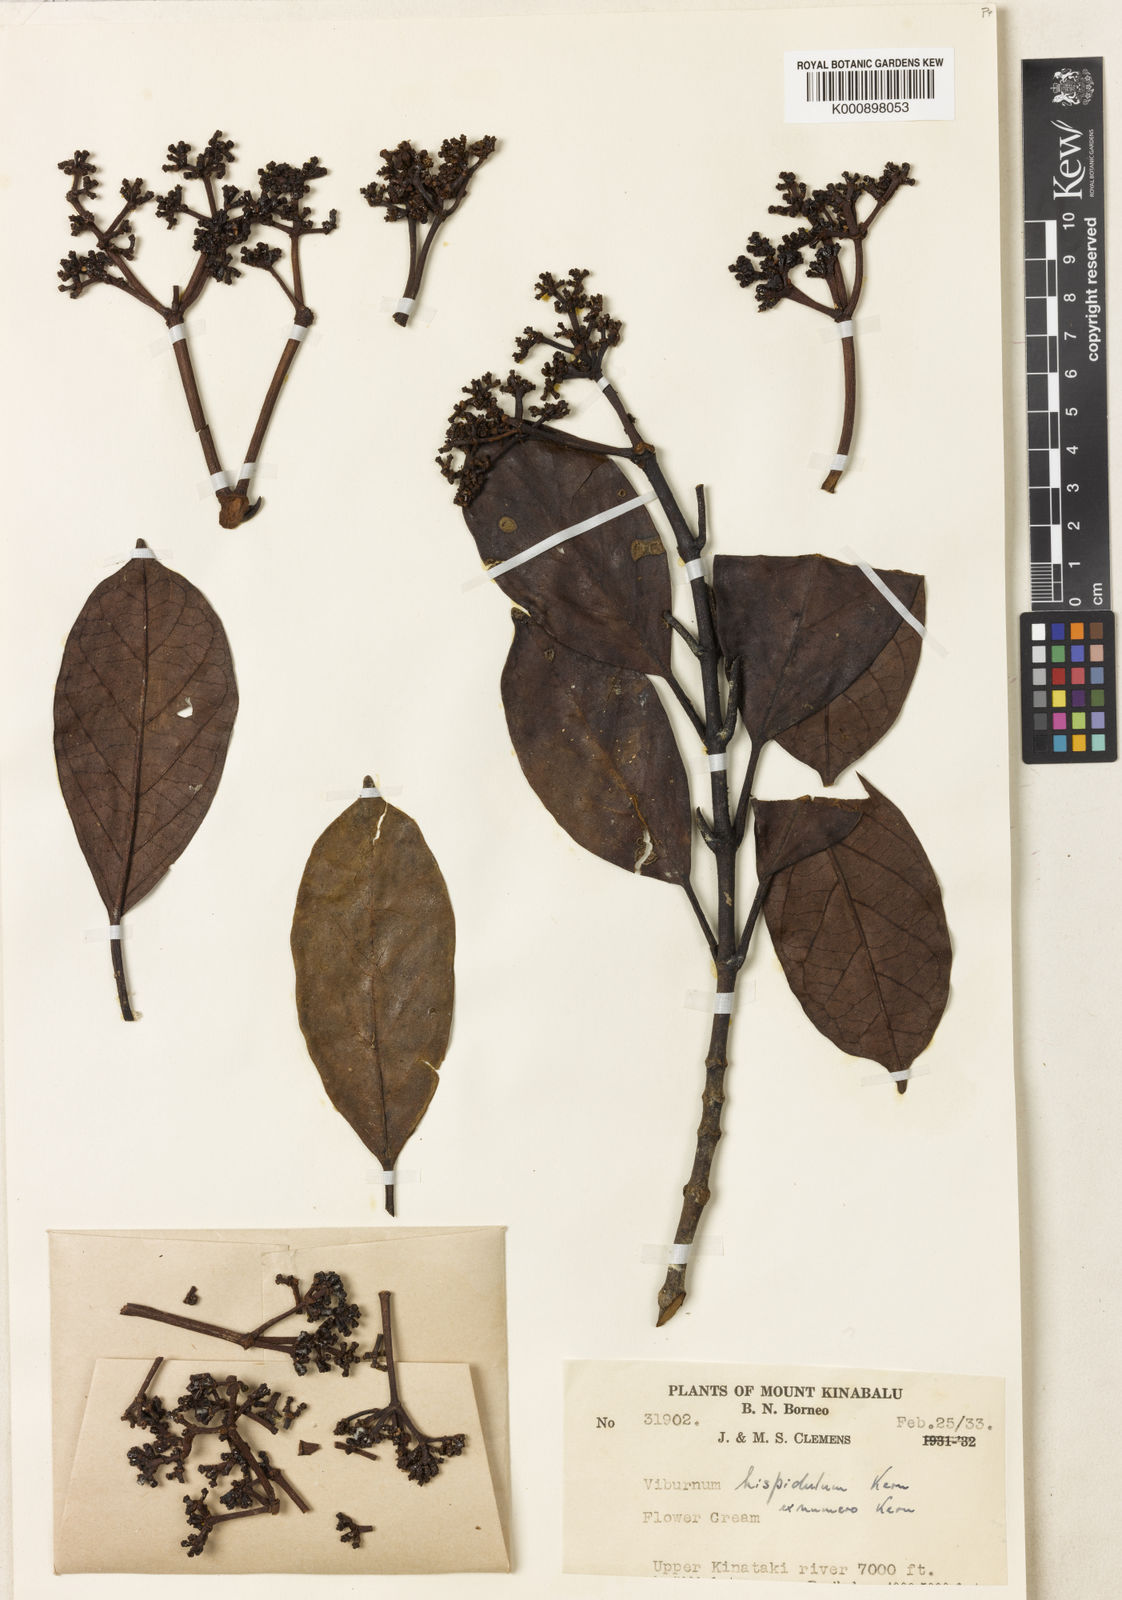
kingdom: Plantae
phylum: Tracheophyta
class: Magnoliopsida
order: Dipsacales
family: Viburnaceae
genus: Viburnum
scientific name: Viburnum hispidulum
